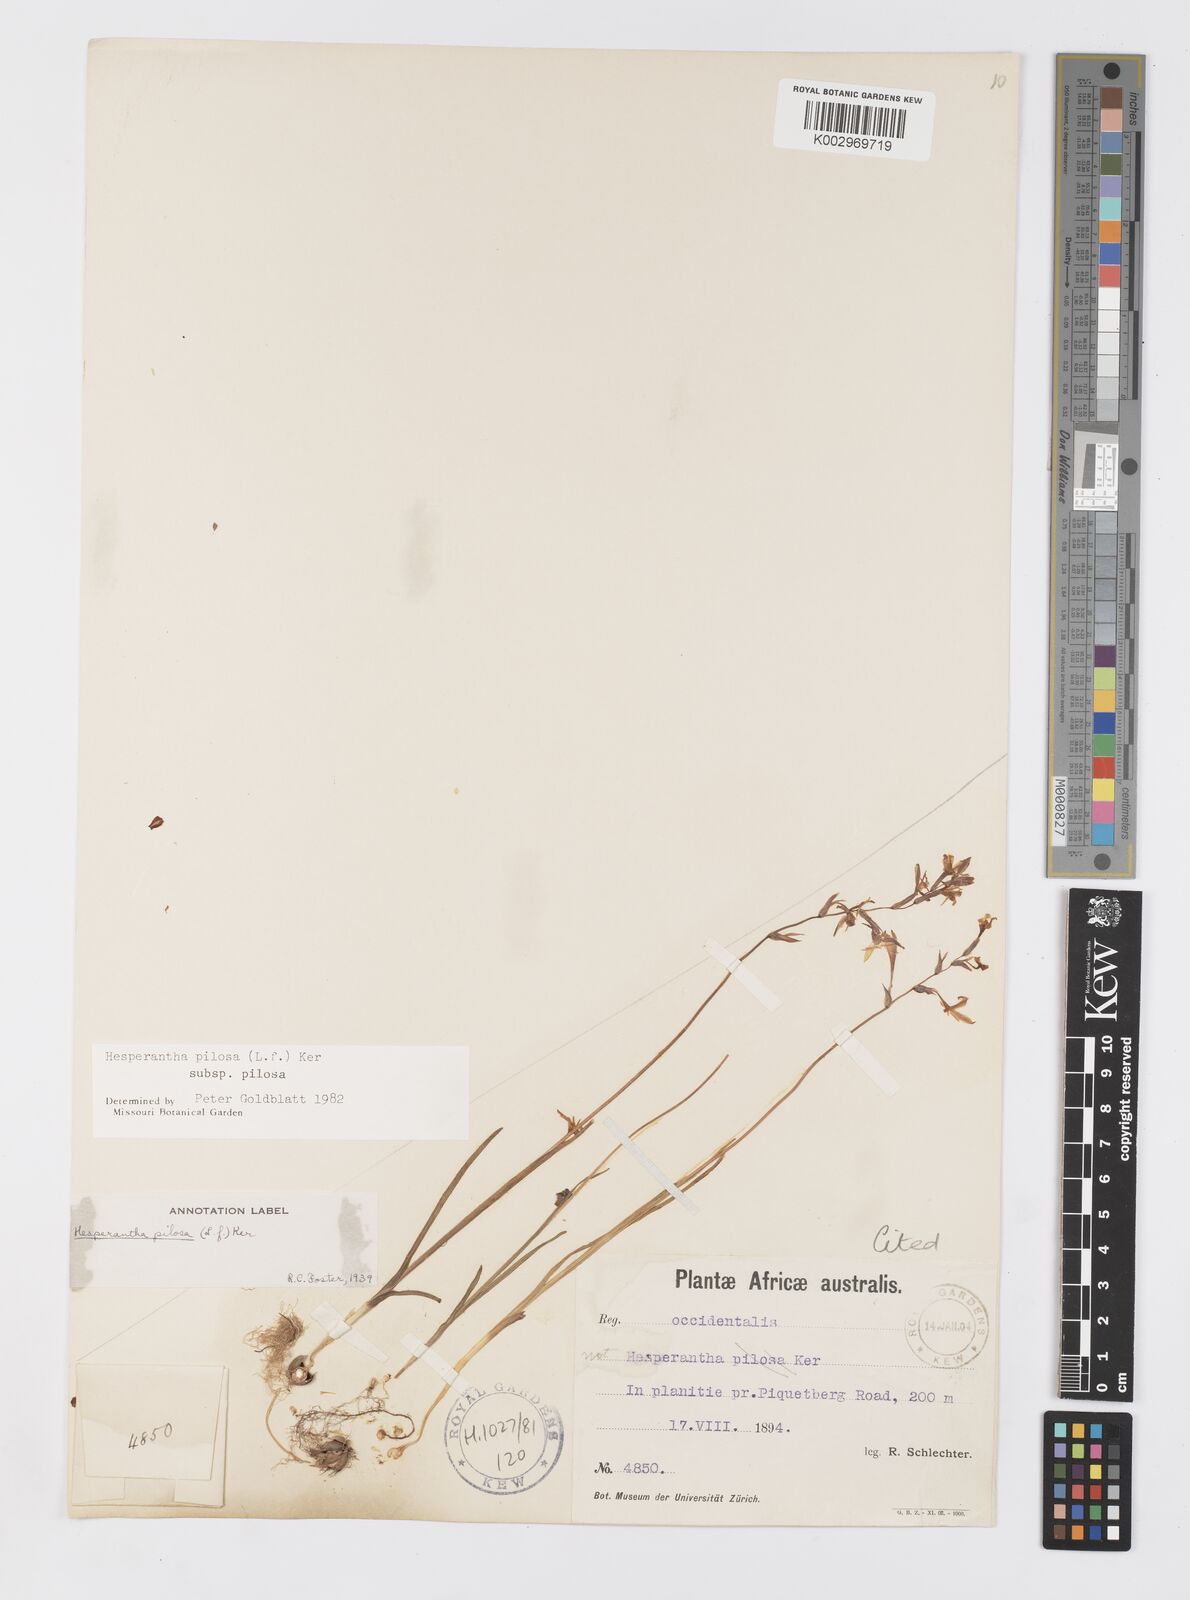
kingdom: Plantae
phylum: Tracheophyta
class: Liliopsida
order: Asparagales
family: Iridaceae
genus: Hesperantha
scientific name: Hesperantha pilosa
